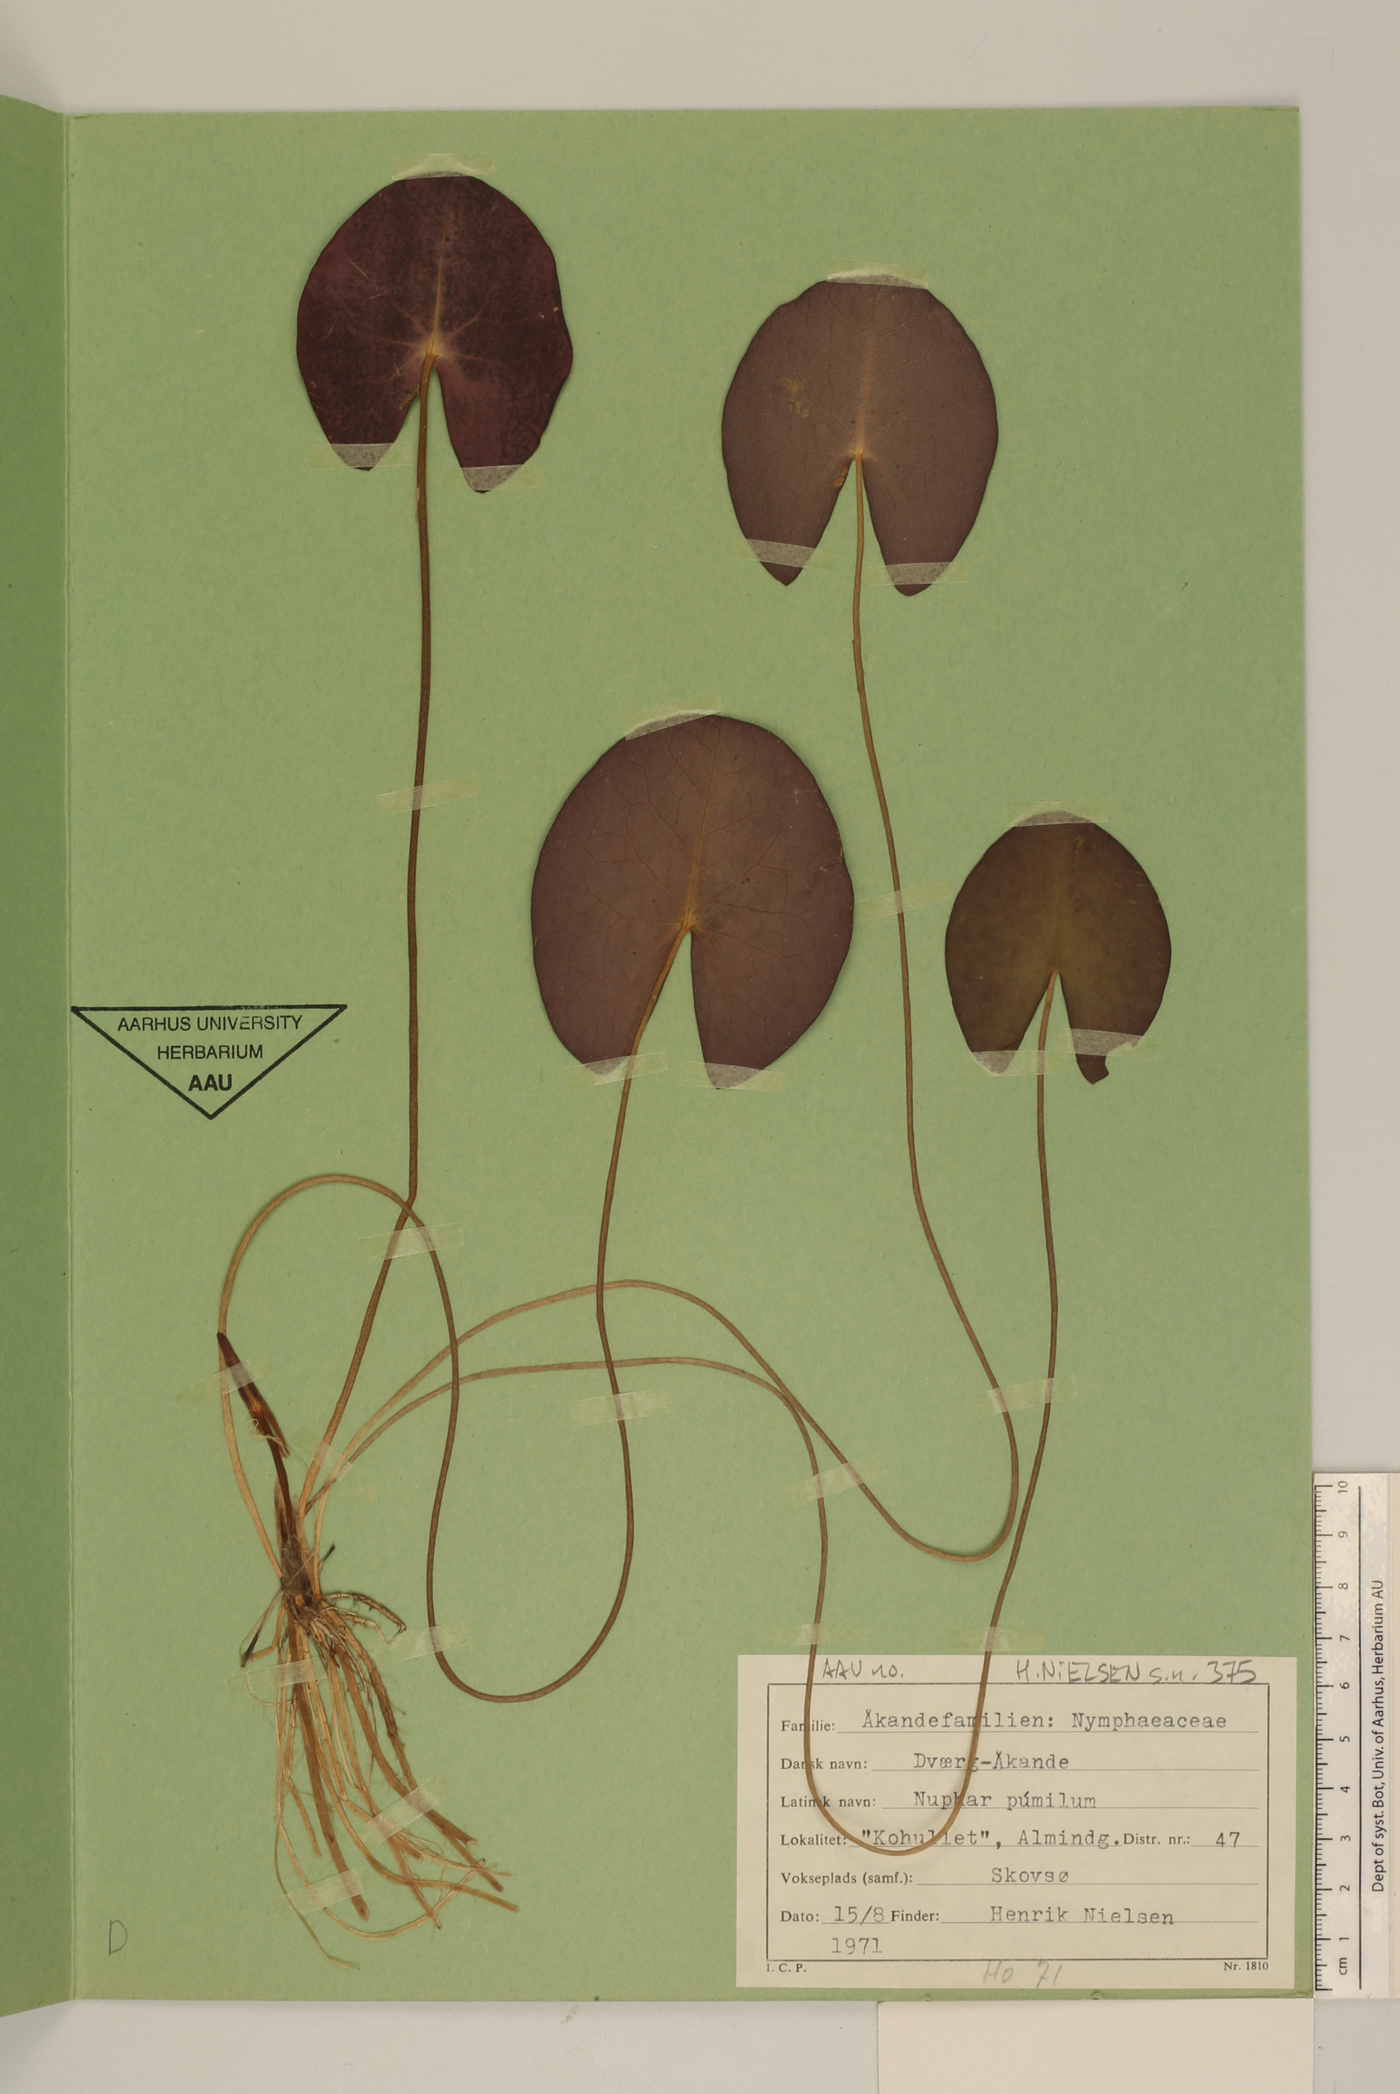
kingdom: Plantae
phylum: Tracheophyta
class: Magnoliopsida
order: Nymphaeales
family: Nymphaeaceae
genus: Nuphar
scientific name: Nuphar pumila
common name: Least water-lily
